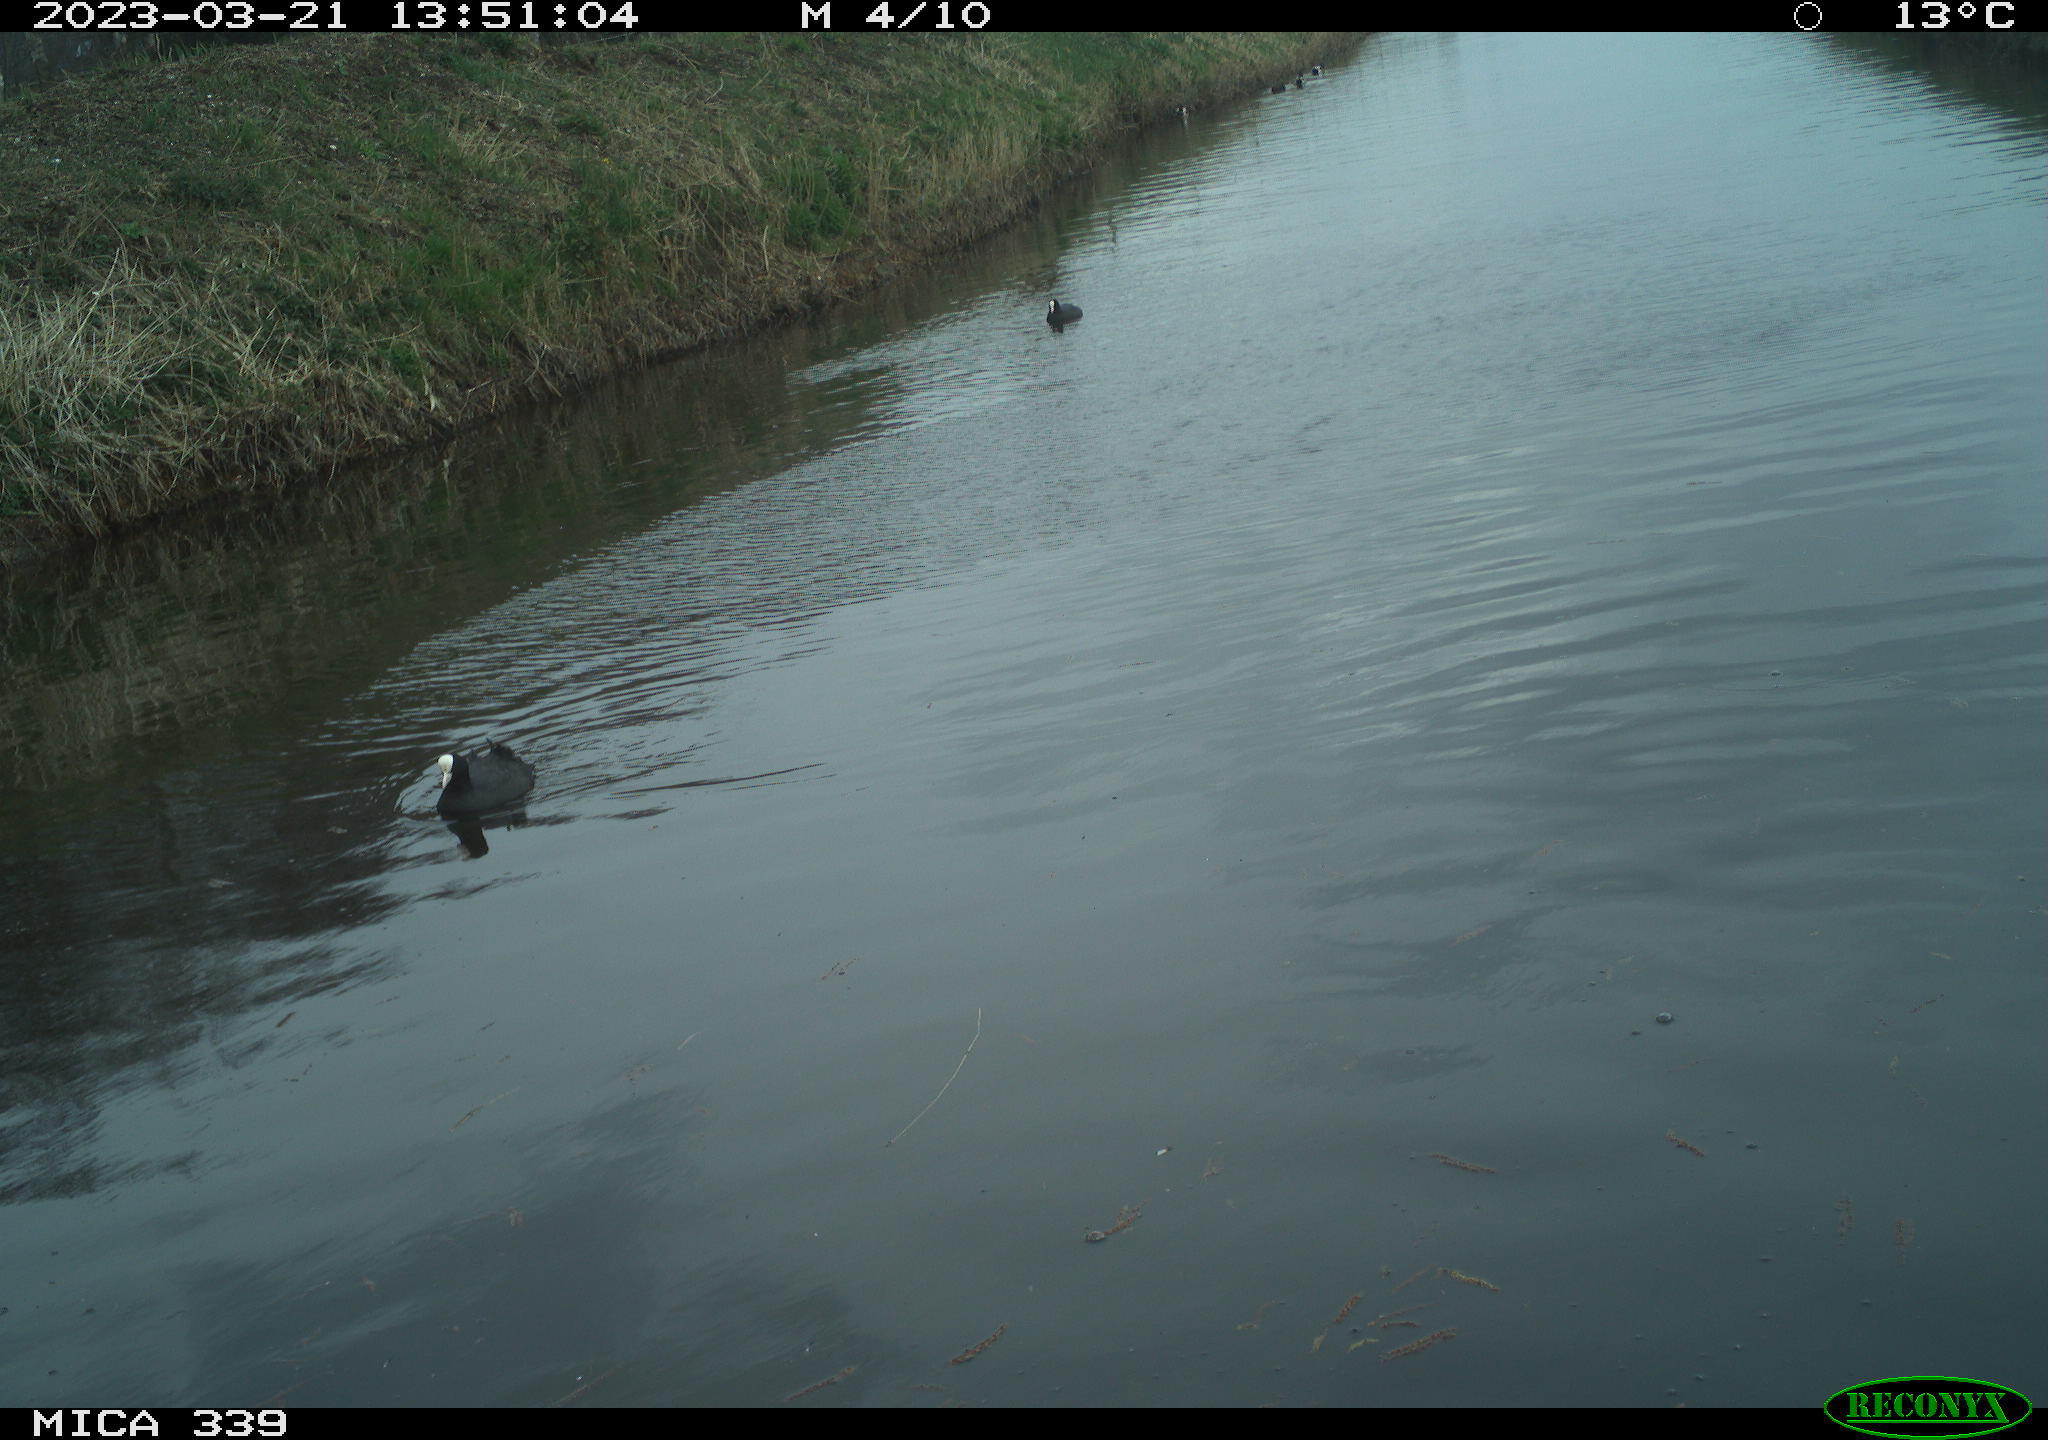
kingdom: Animalia
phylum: Chordata
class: Aves
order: Gruiformes
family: Rallidae
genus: Fulica
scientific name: Fulica atra
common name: Eurasian coot
